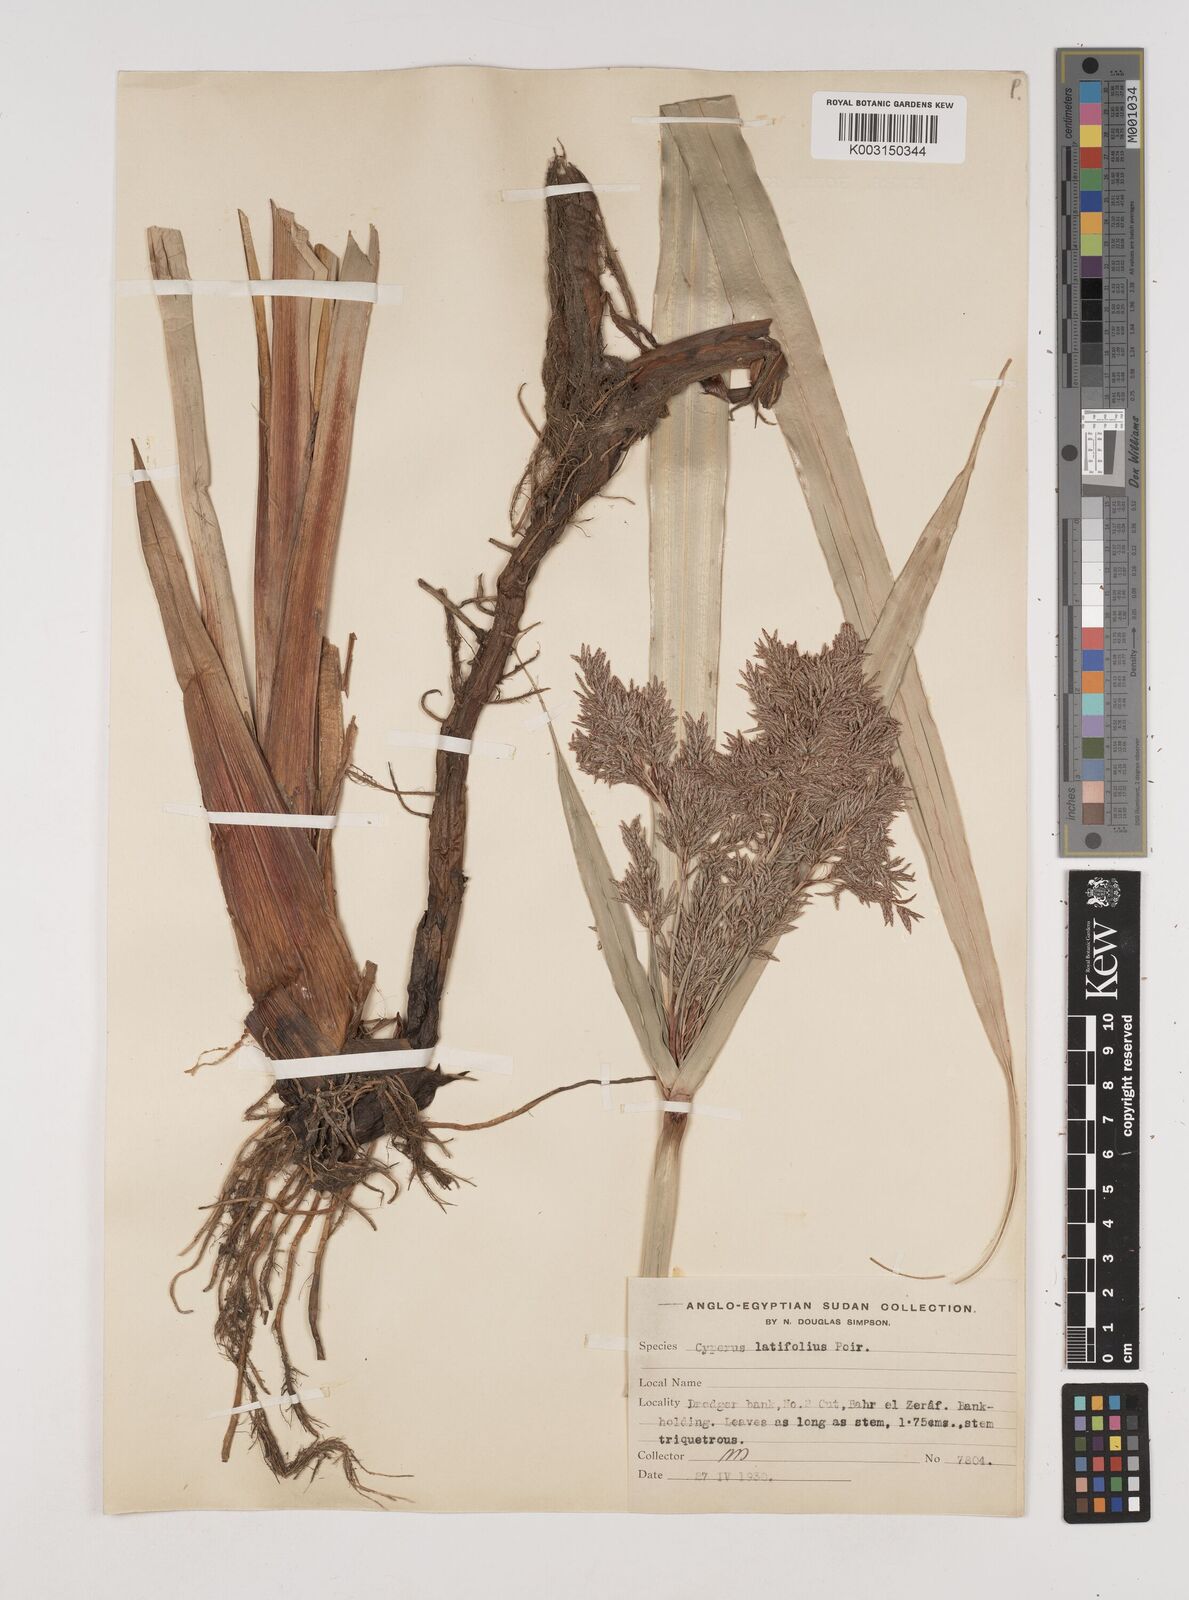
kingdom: Plantae
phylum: Tracheophyta
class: Liliopsida
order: Poales
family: Cyperaceae
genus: Cyperus
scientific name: Cyperus latifolius
